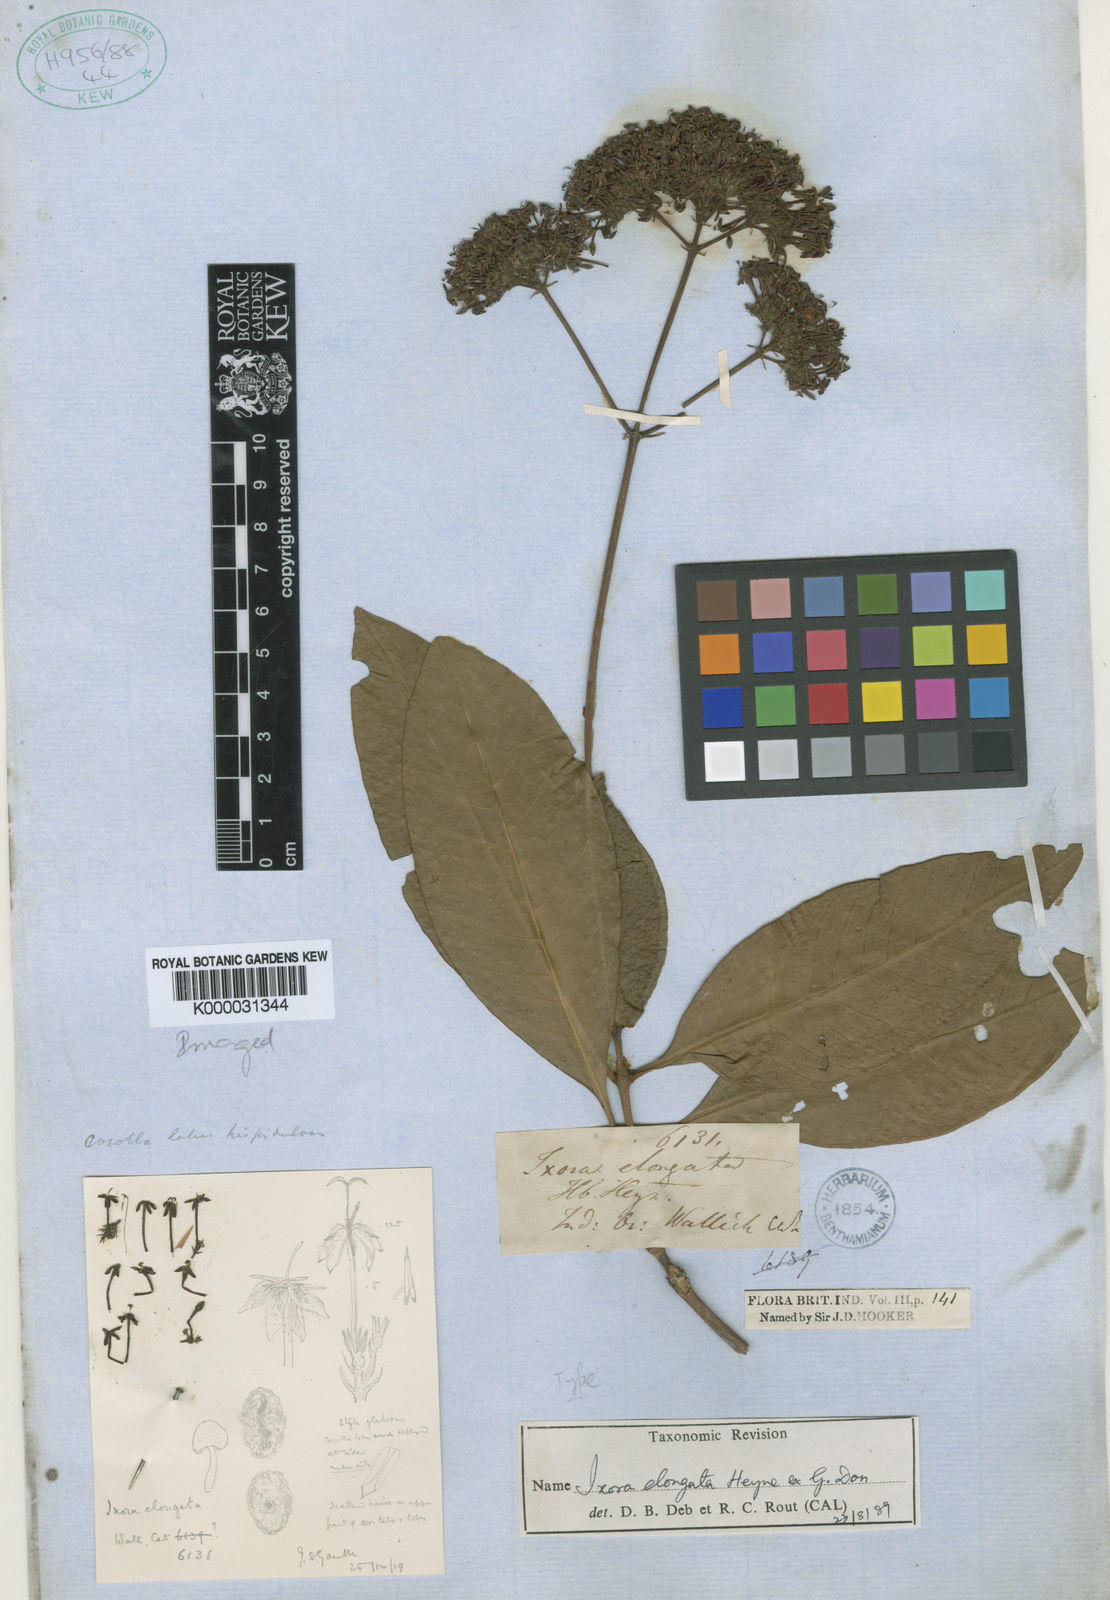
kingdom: Plantae
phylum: Tracheophyta
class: Magnoliopsida
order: Gentianales
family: Rubiaceae
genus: Ixora
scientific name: Ixora elongata
